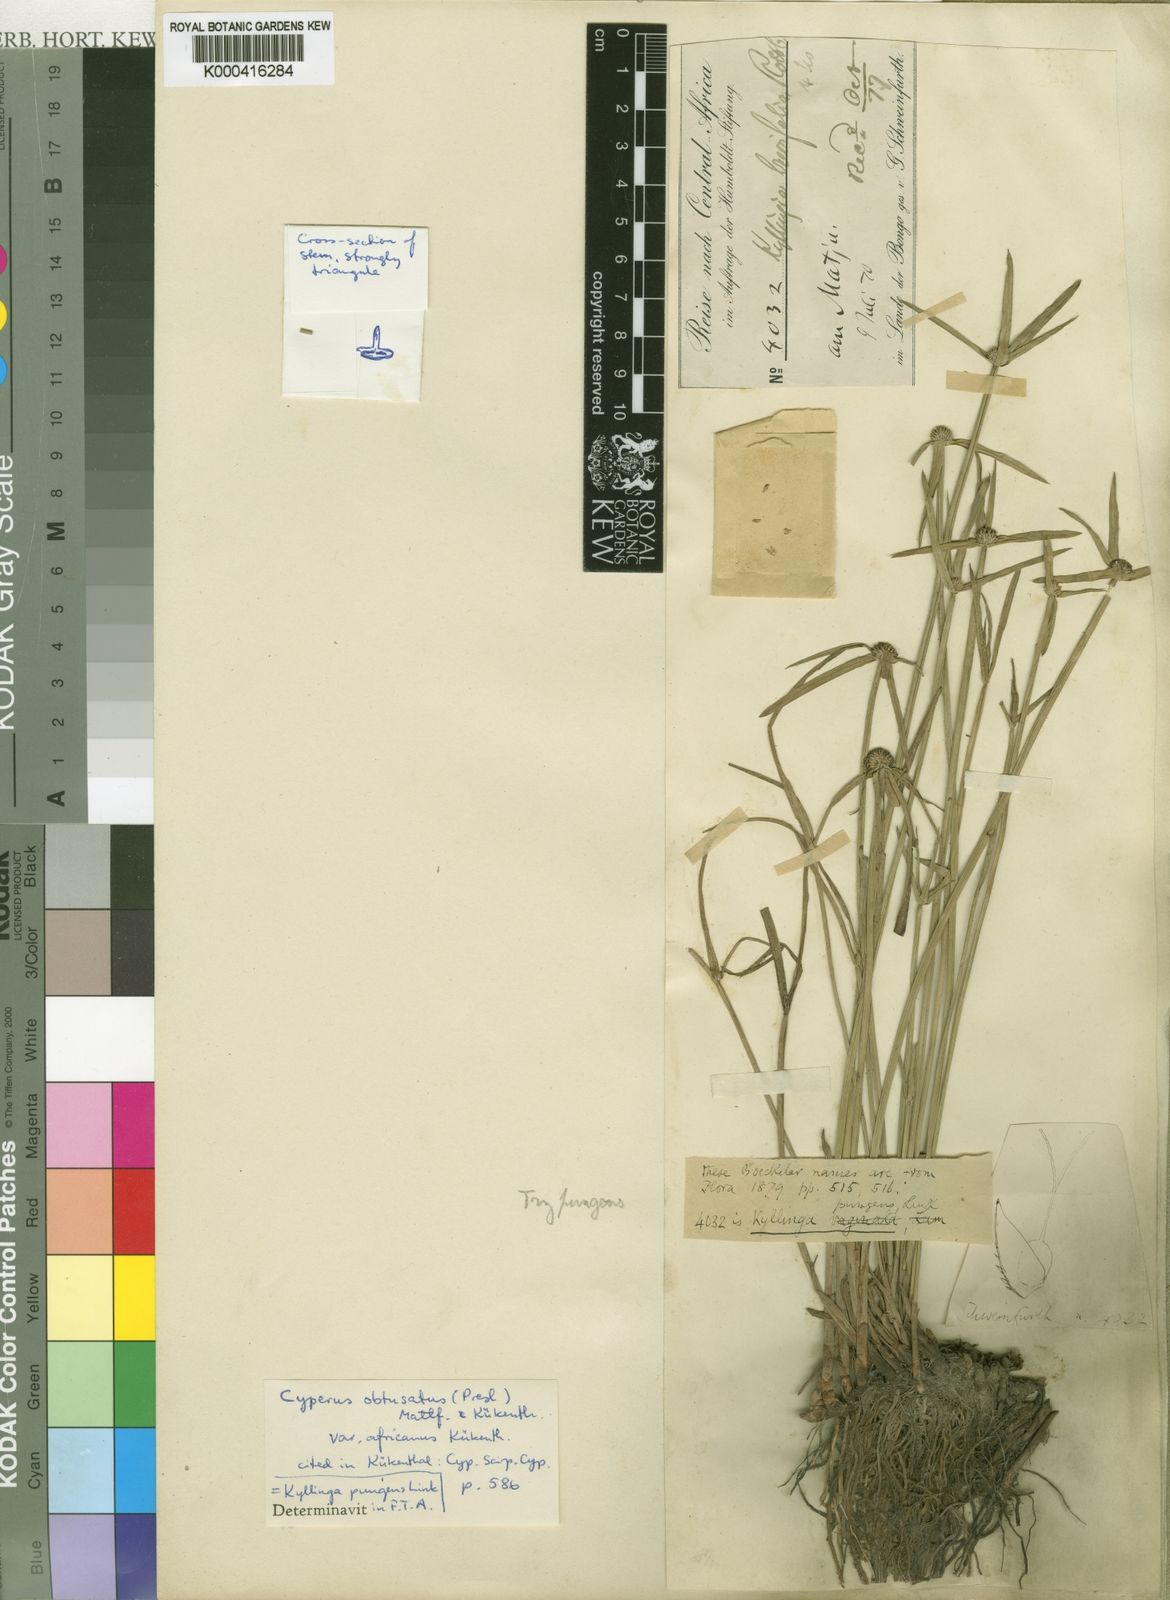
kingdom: Plantae
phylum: Tracheophyta
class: Liliopsida
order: Poales
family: Cyperaceae
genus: Cyperus
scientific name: Cyperus obtusatus
